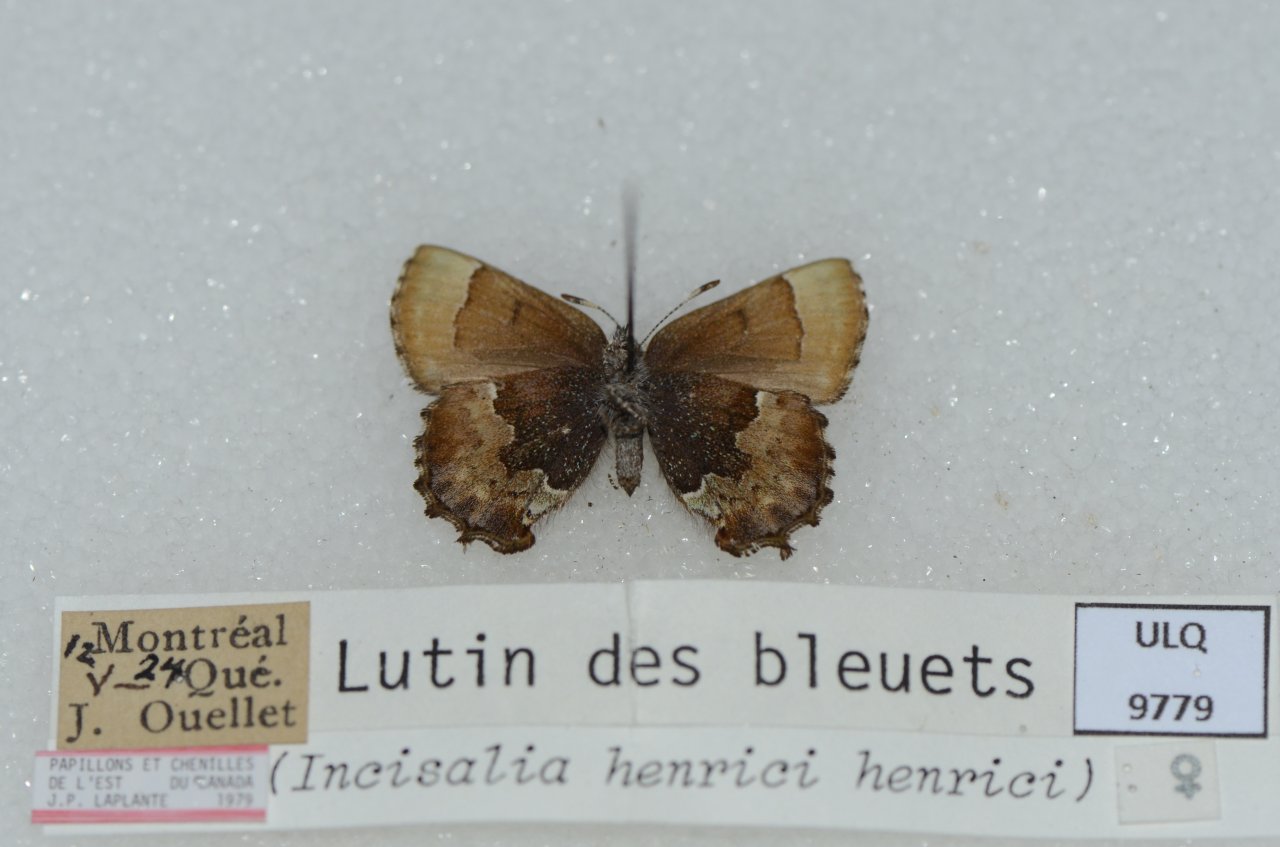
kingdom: Animalia
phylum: Arthropoda
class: Insecta
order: Lepidoptera
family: Lycaenidae
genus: Incisalia
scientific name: Incisalia henrici
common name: Henry's Elfin
